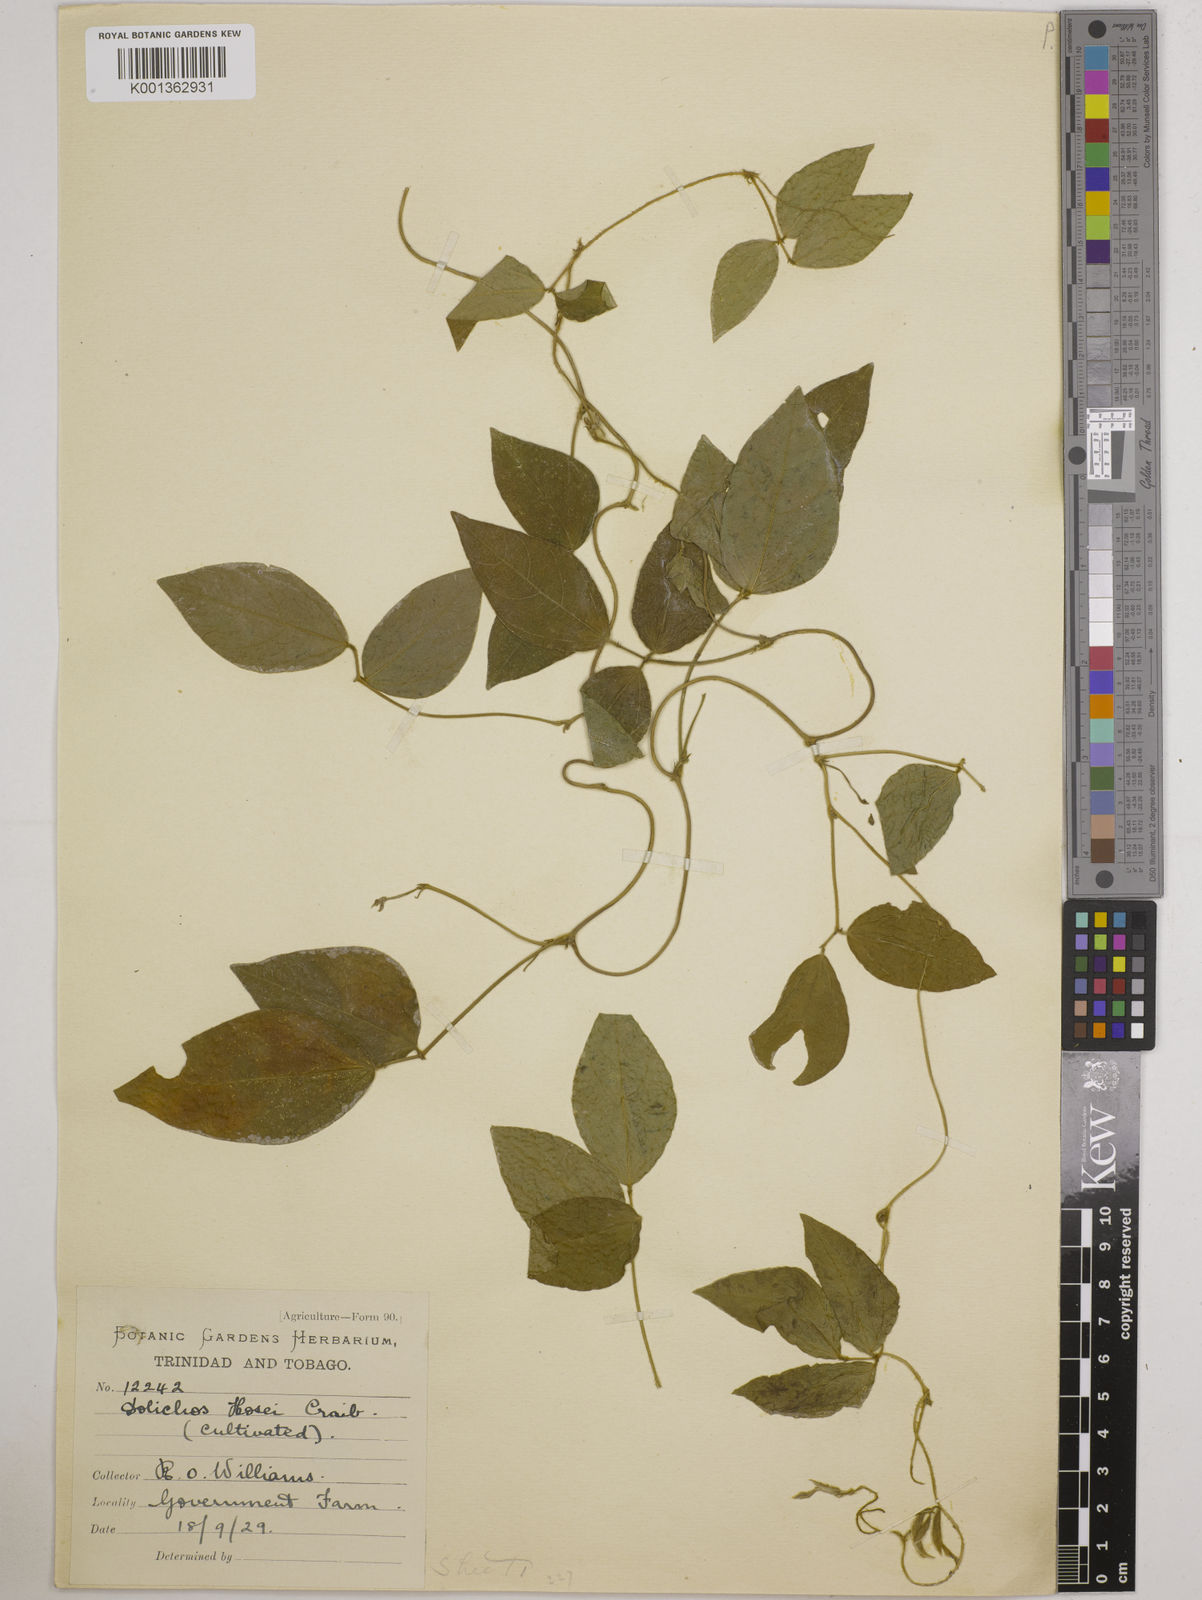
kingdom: Plantae
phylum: Tracheophyta
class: Magnoliopsida
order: Fabales
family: Fabaceae
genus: Vigna
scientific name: Vigna hosei
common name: Sarawak-bean
